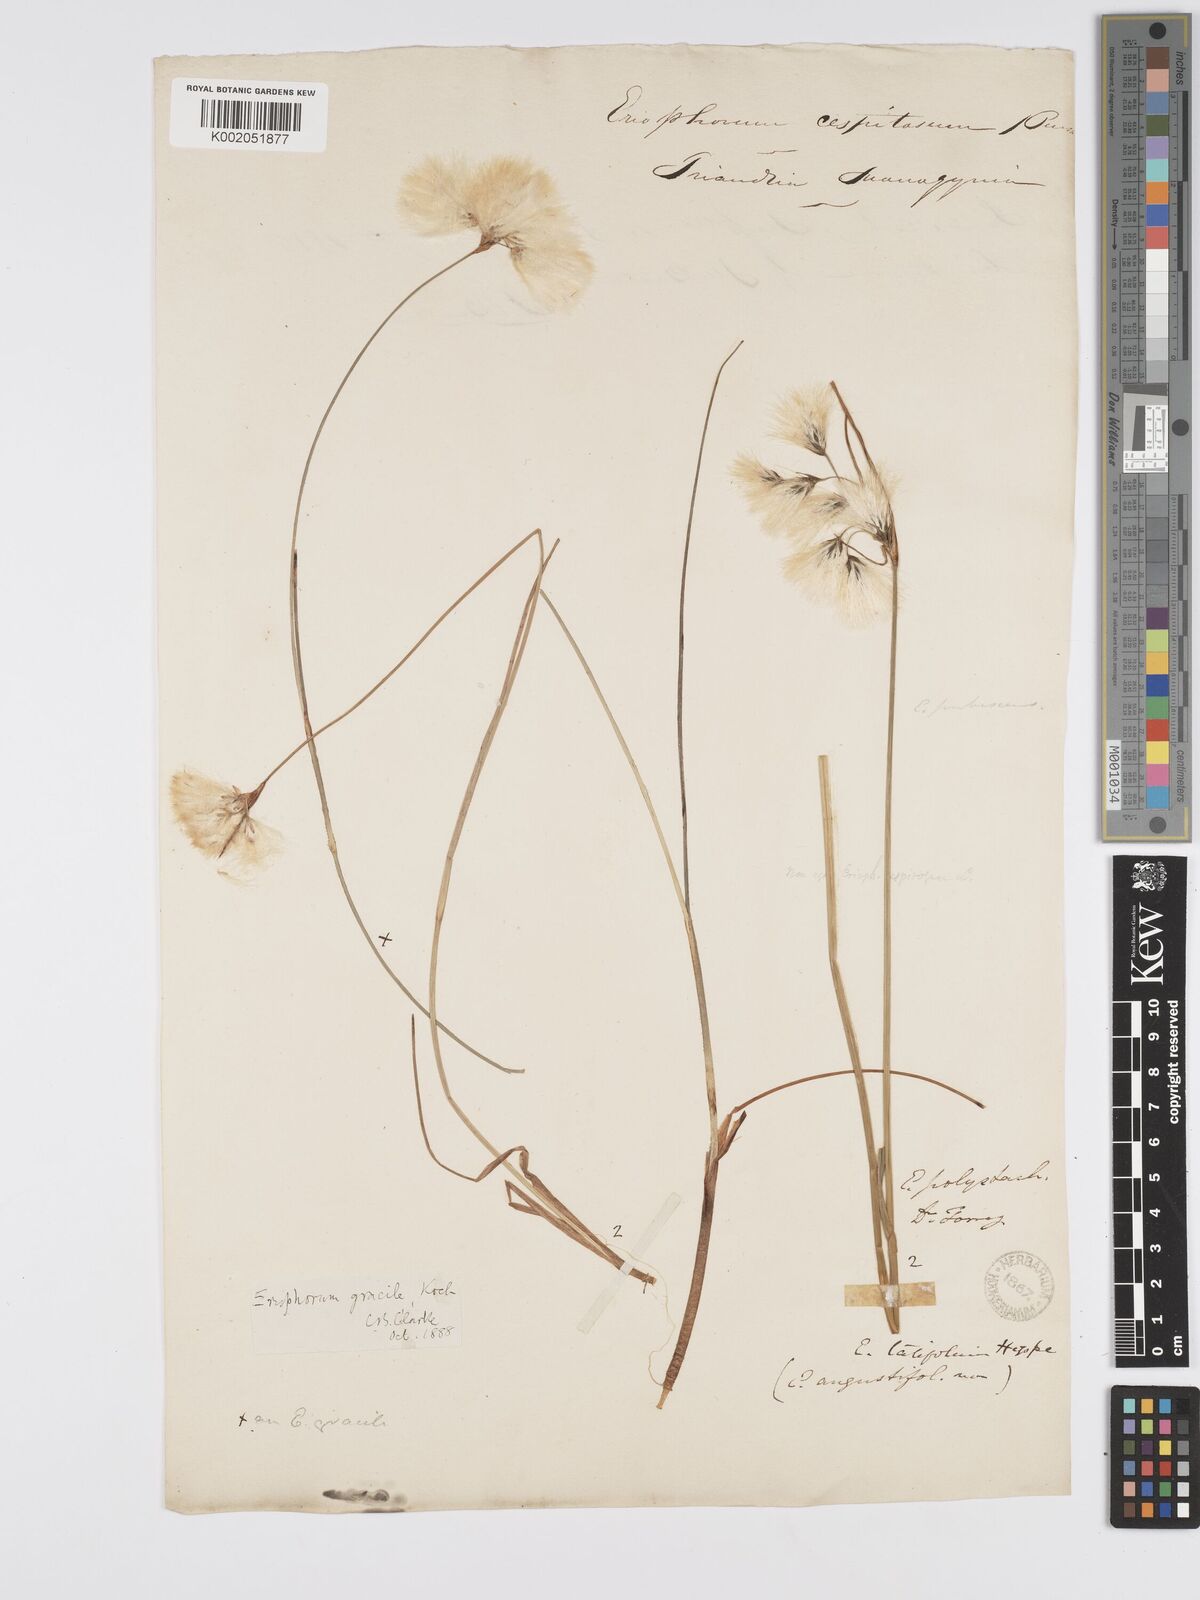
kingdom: Plantae
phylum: Tracheophyta
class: Liliopsida
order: Poales
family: Cyperaceae
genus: Eriophorum
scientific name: Eriophorum gracile
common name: Slender cottongrass
